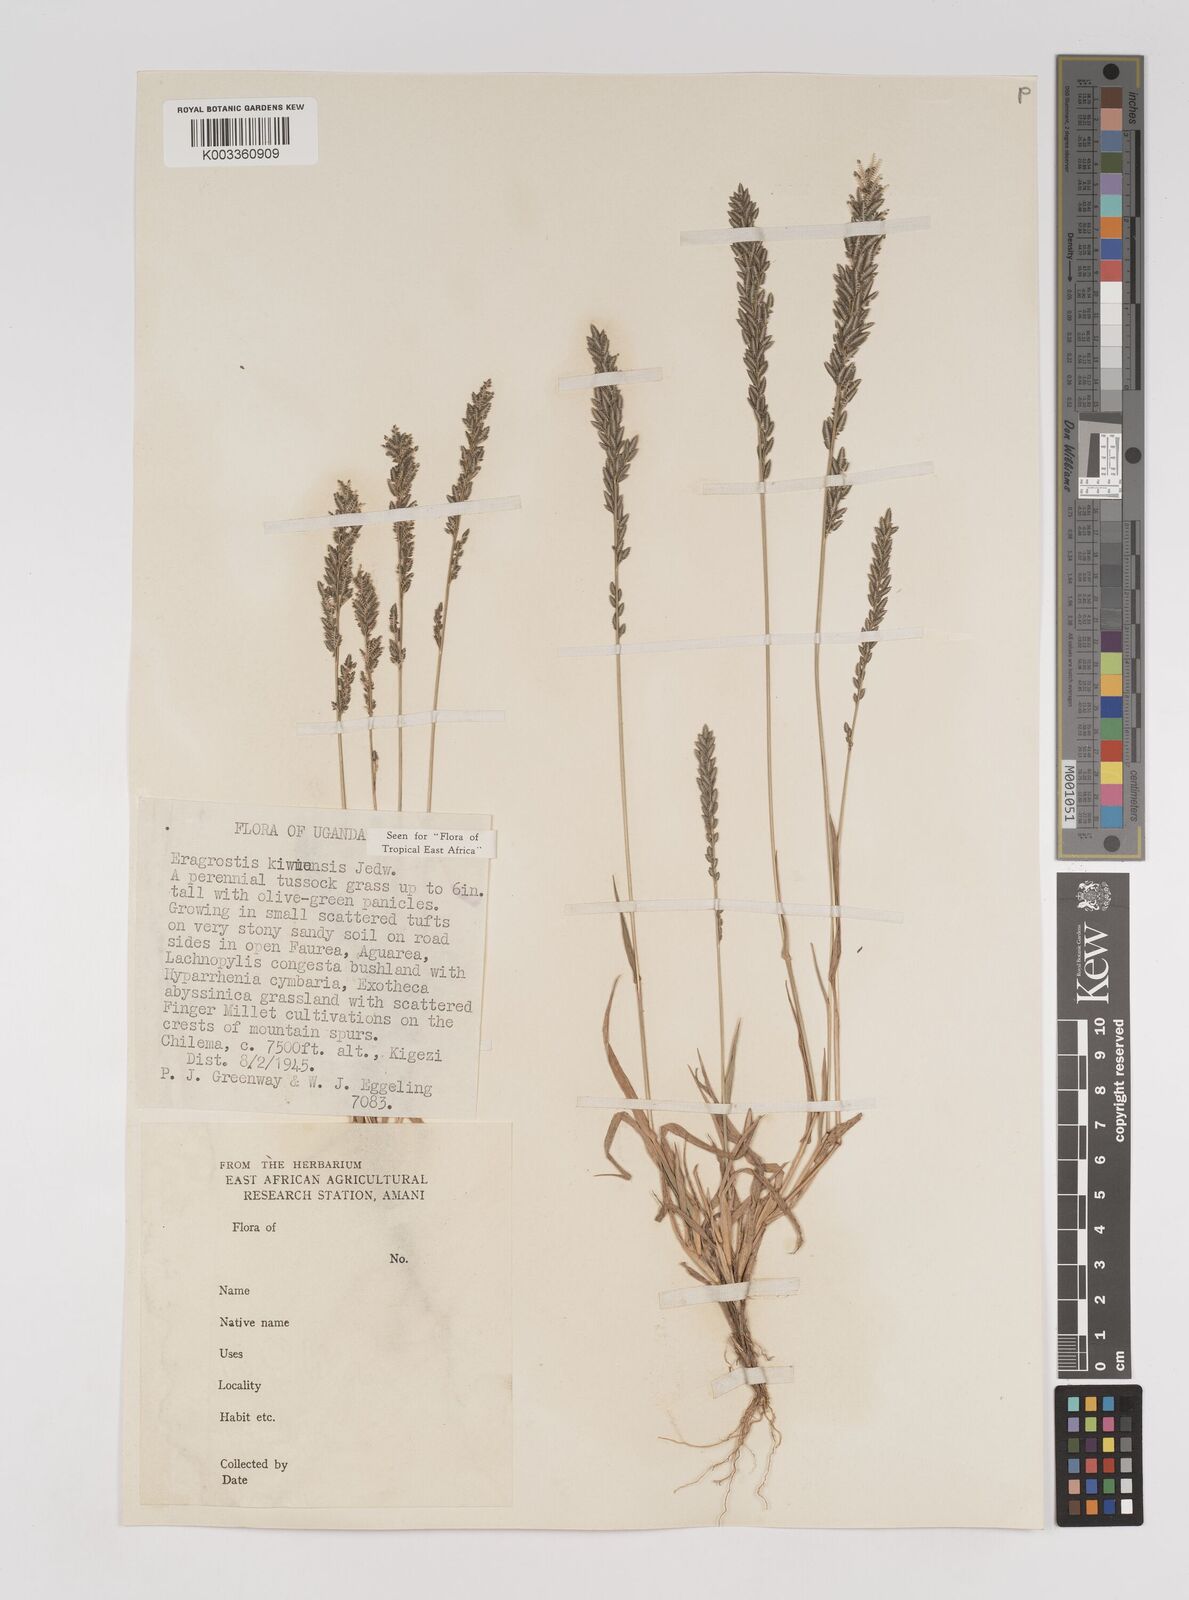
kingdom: Plantae
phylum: Tracheophyta
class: Liliopsida
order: Poales
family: Poaceae
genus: Eragrostis
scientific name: Eragrostis schweinfurthii
